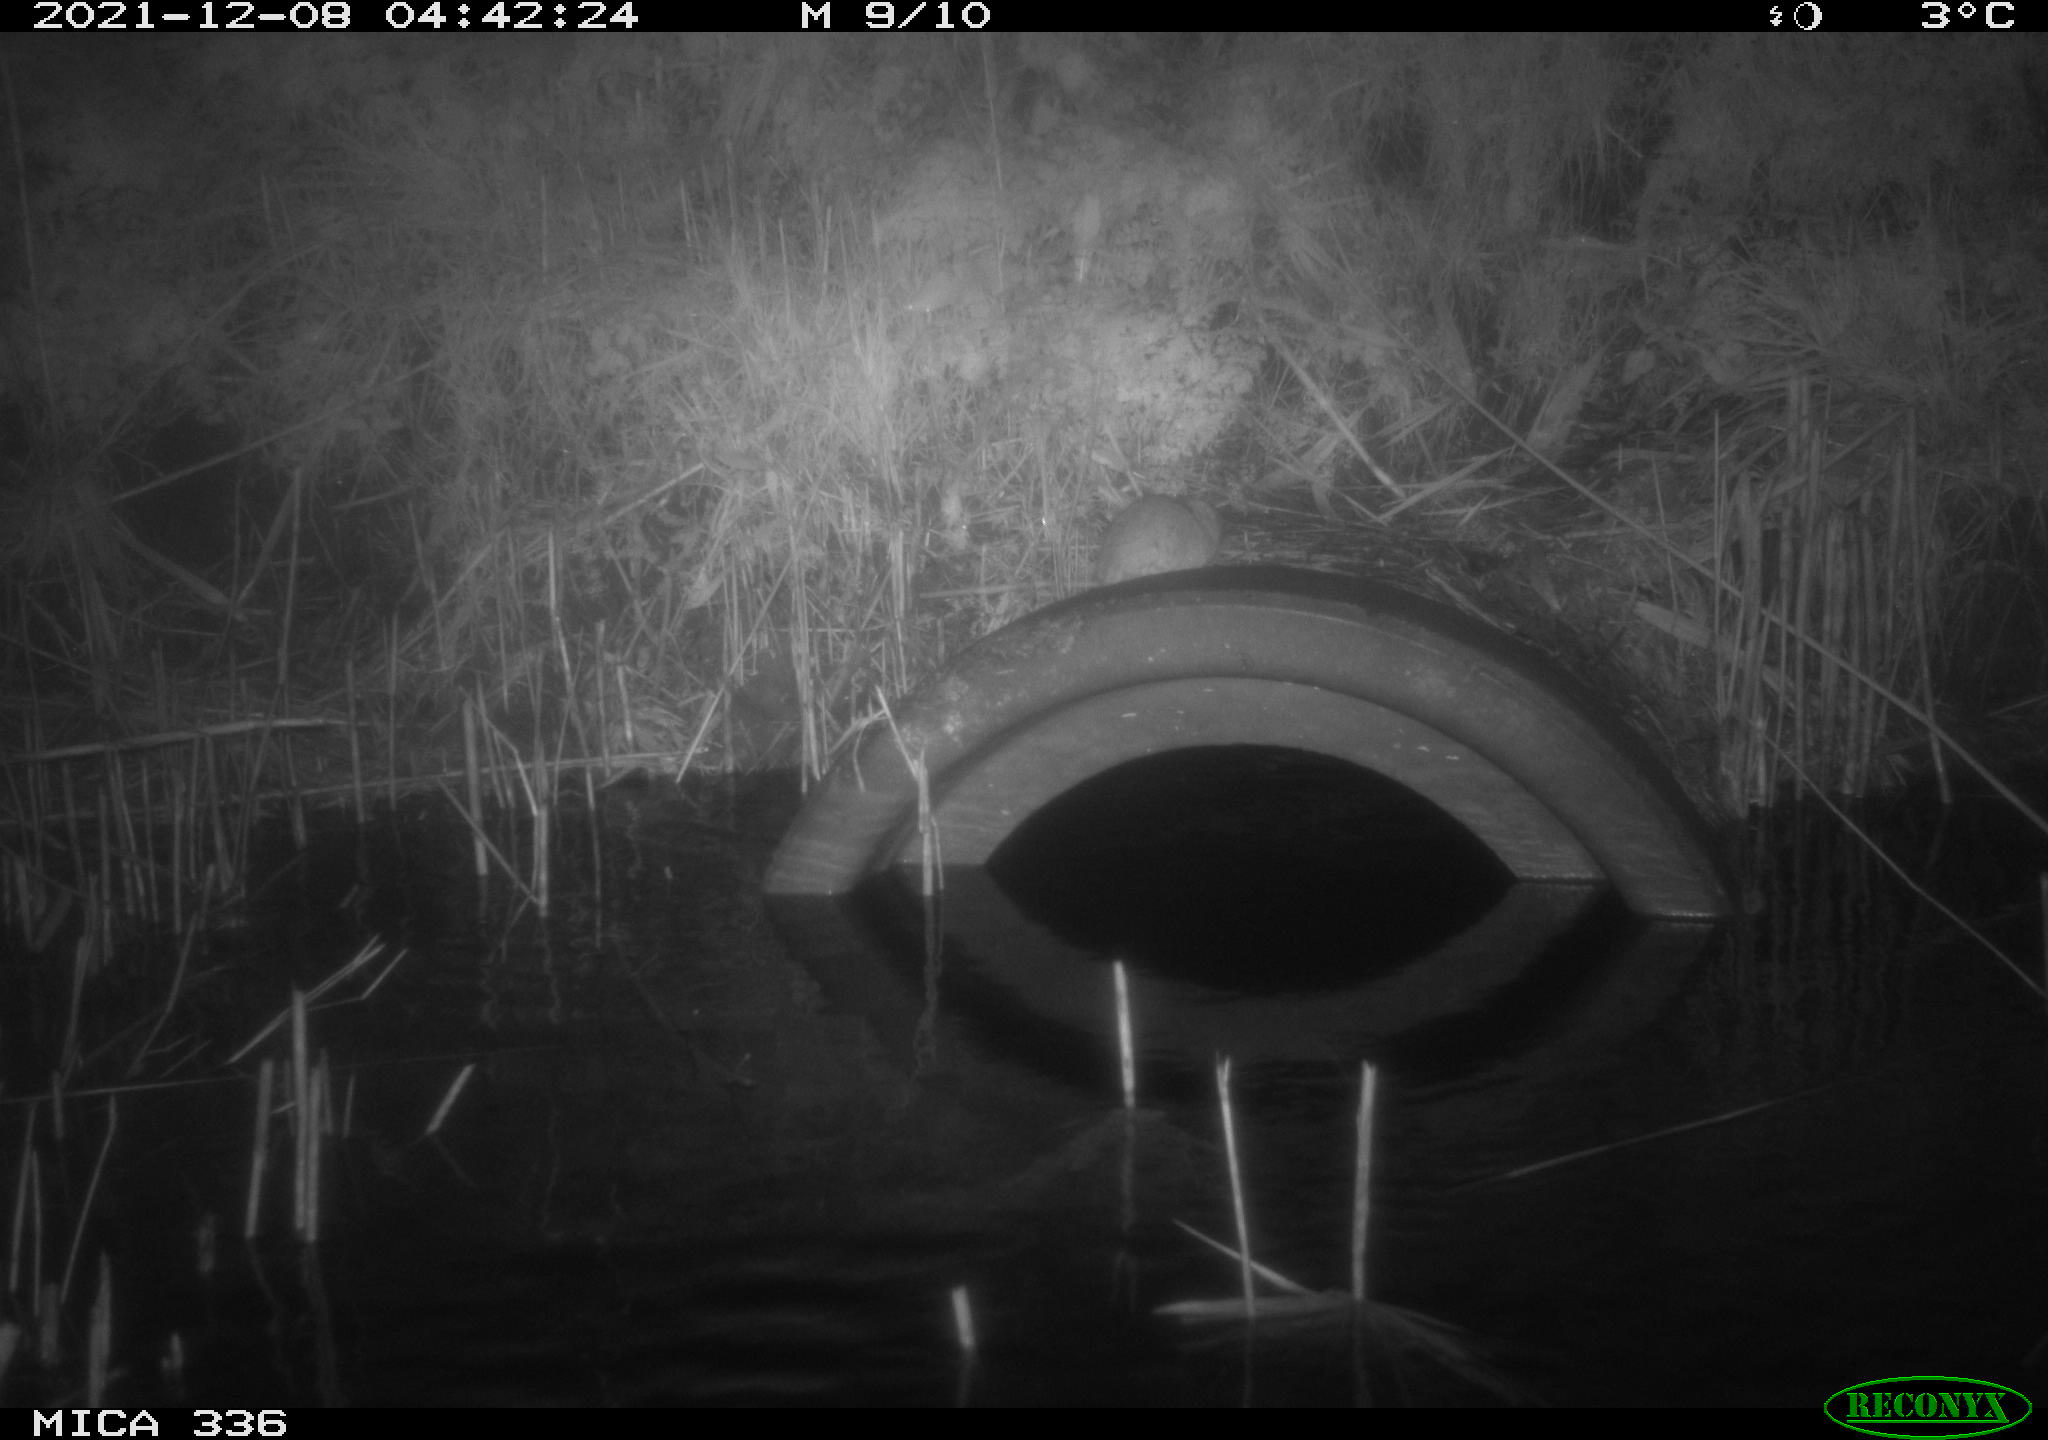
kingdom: Animalia
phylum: Chordata
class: Mammalia
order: Rodentia
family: Muridae
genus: Rattus
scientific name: Rattus norvegicus
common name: Brown rat
